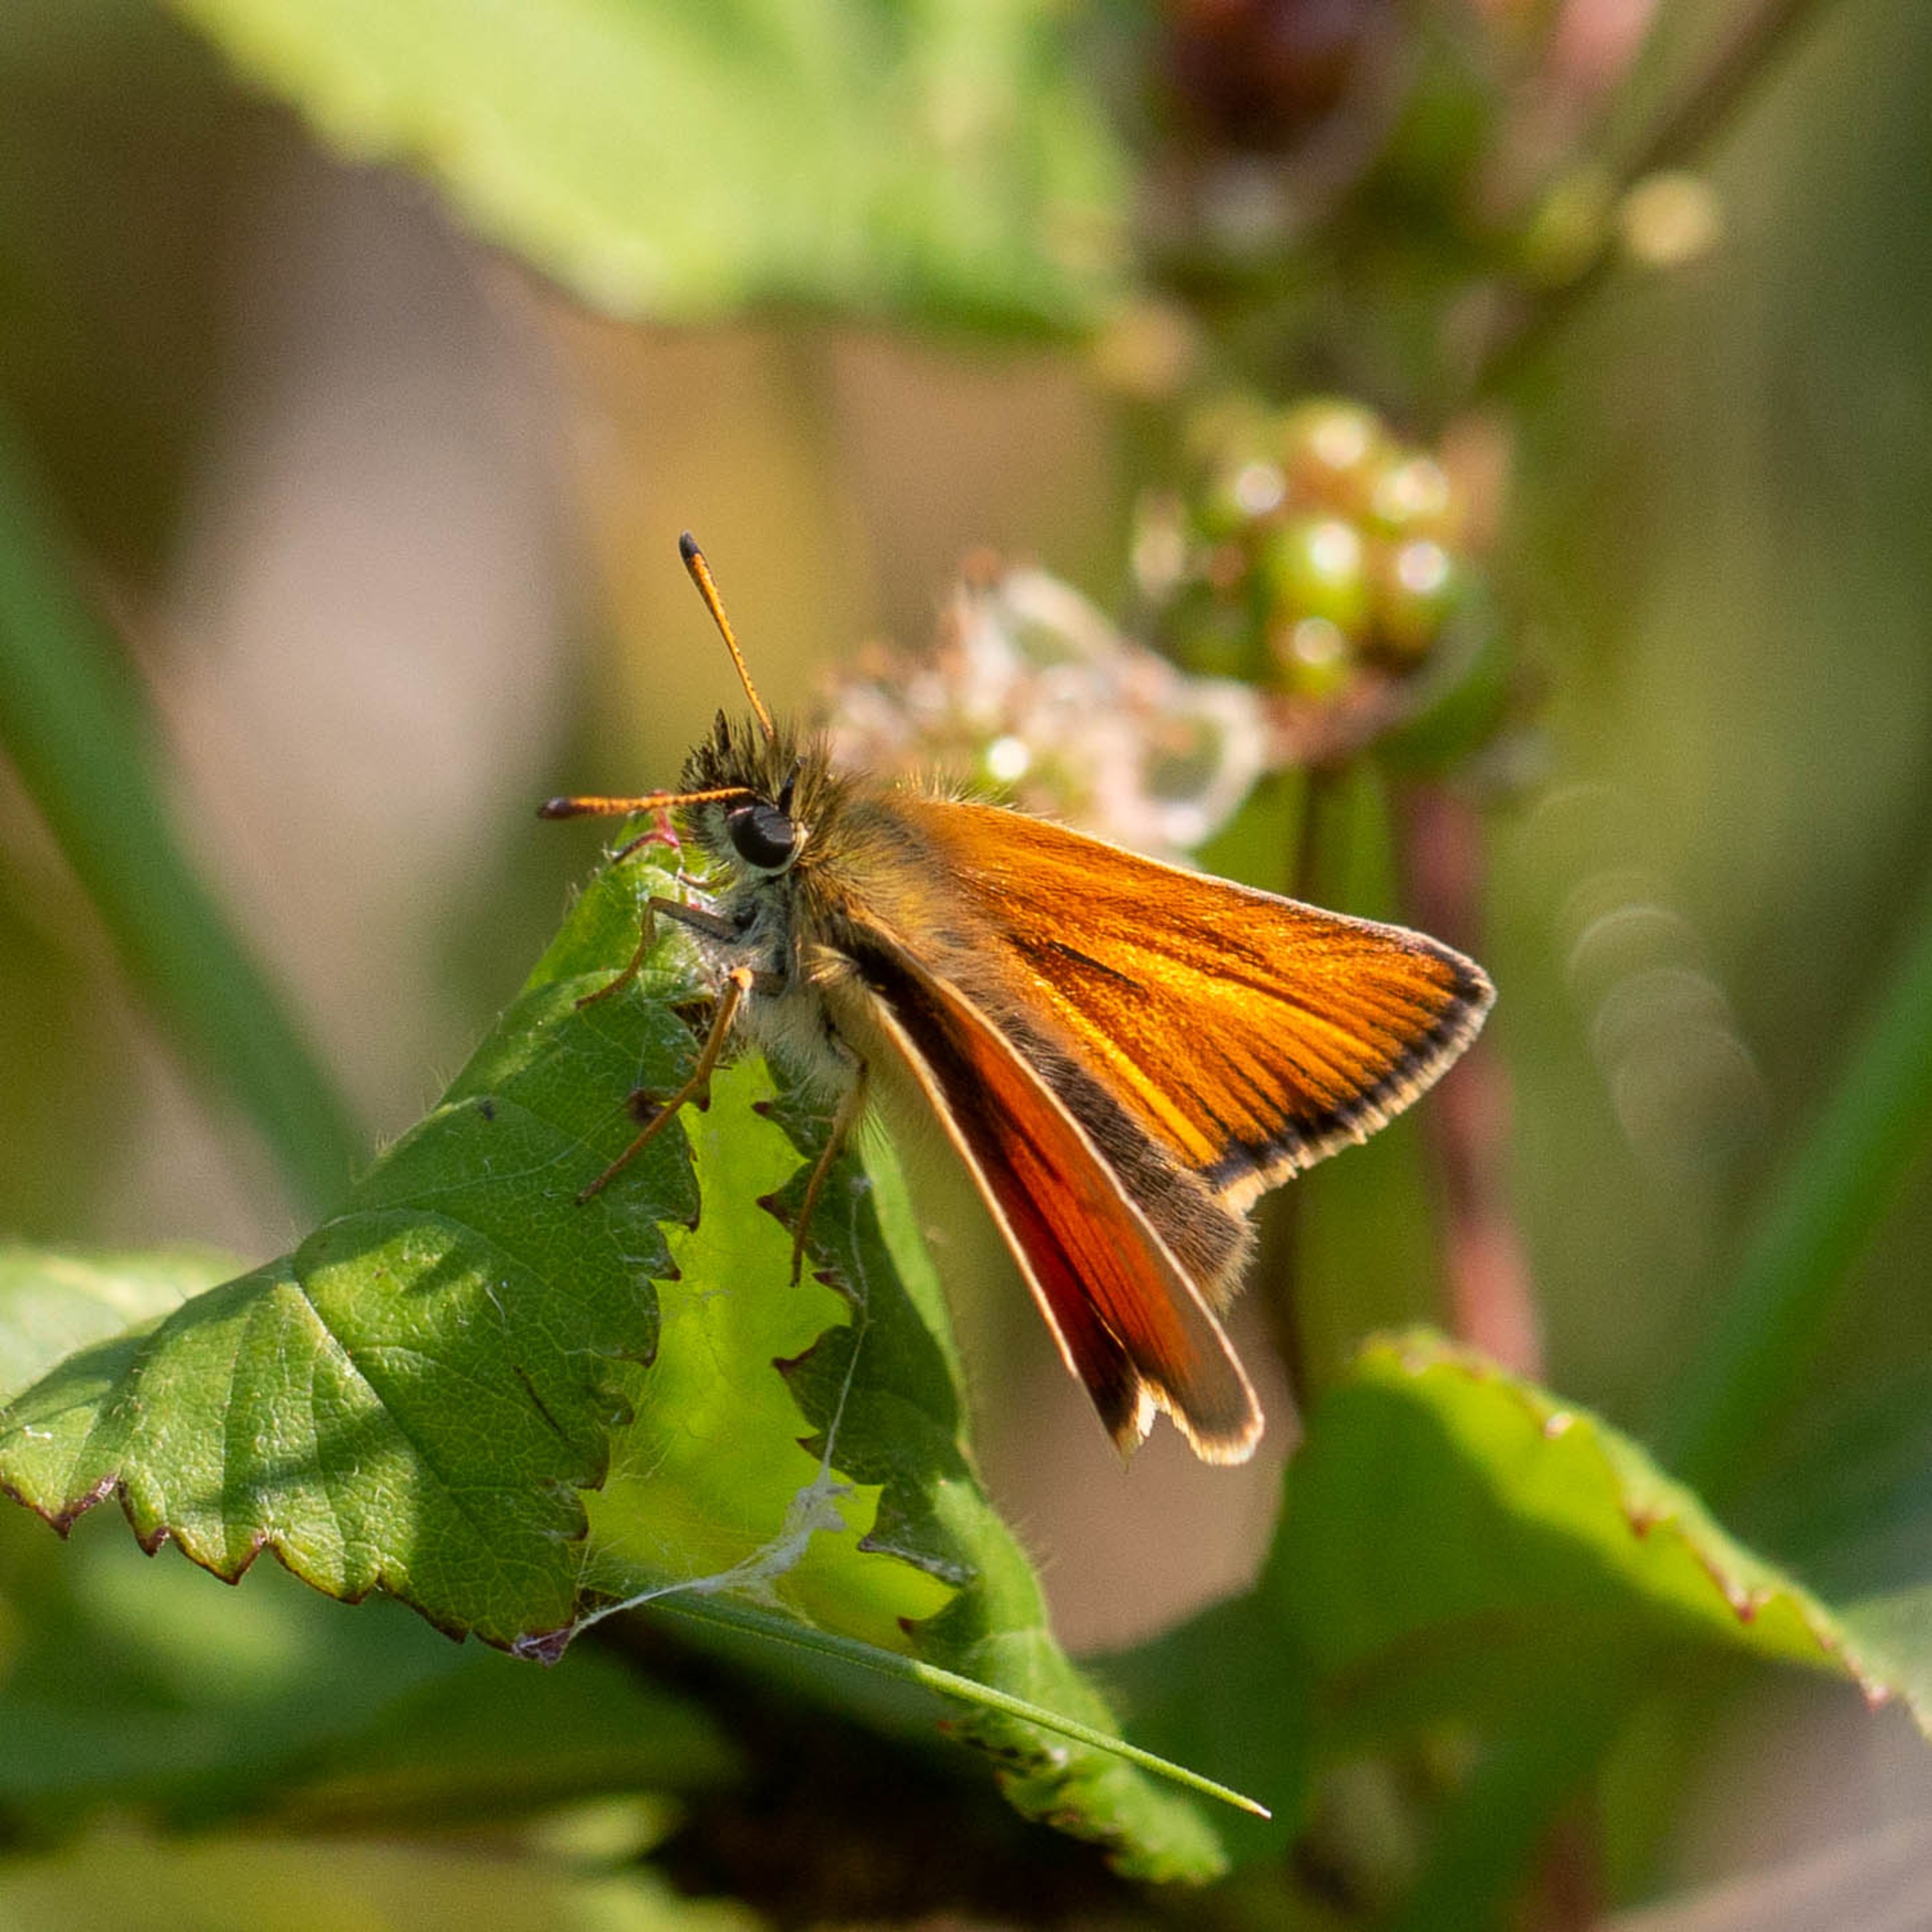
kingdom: Animalia
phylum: Arthropoda
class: Insecta
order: Lepidoptera
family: Hesperiidae
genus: Thymelicus
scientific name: Thymelicus lineola
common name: Stregbredpande
